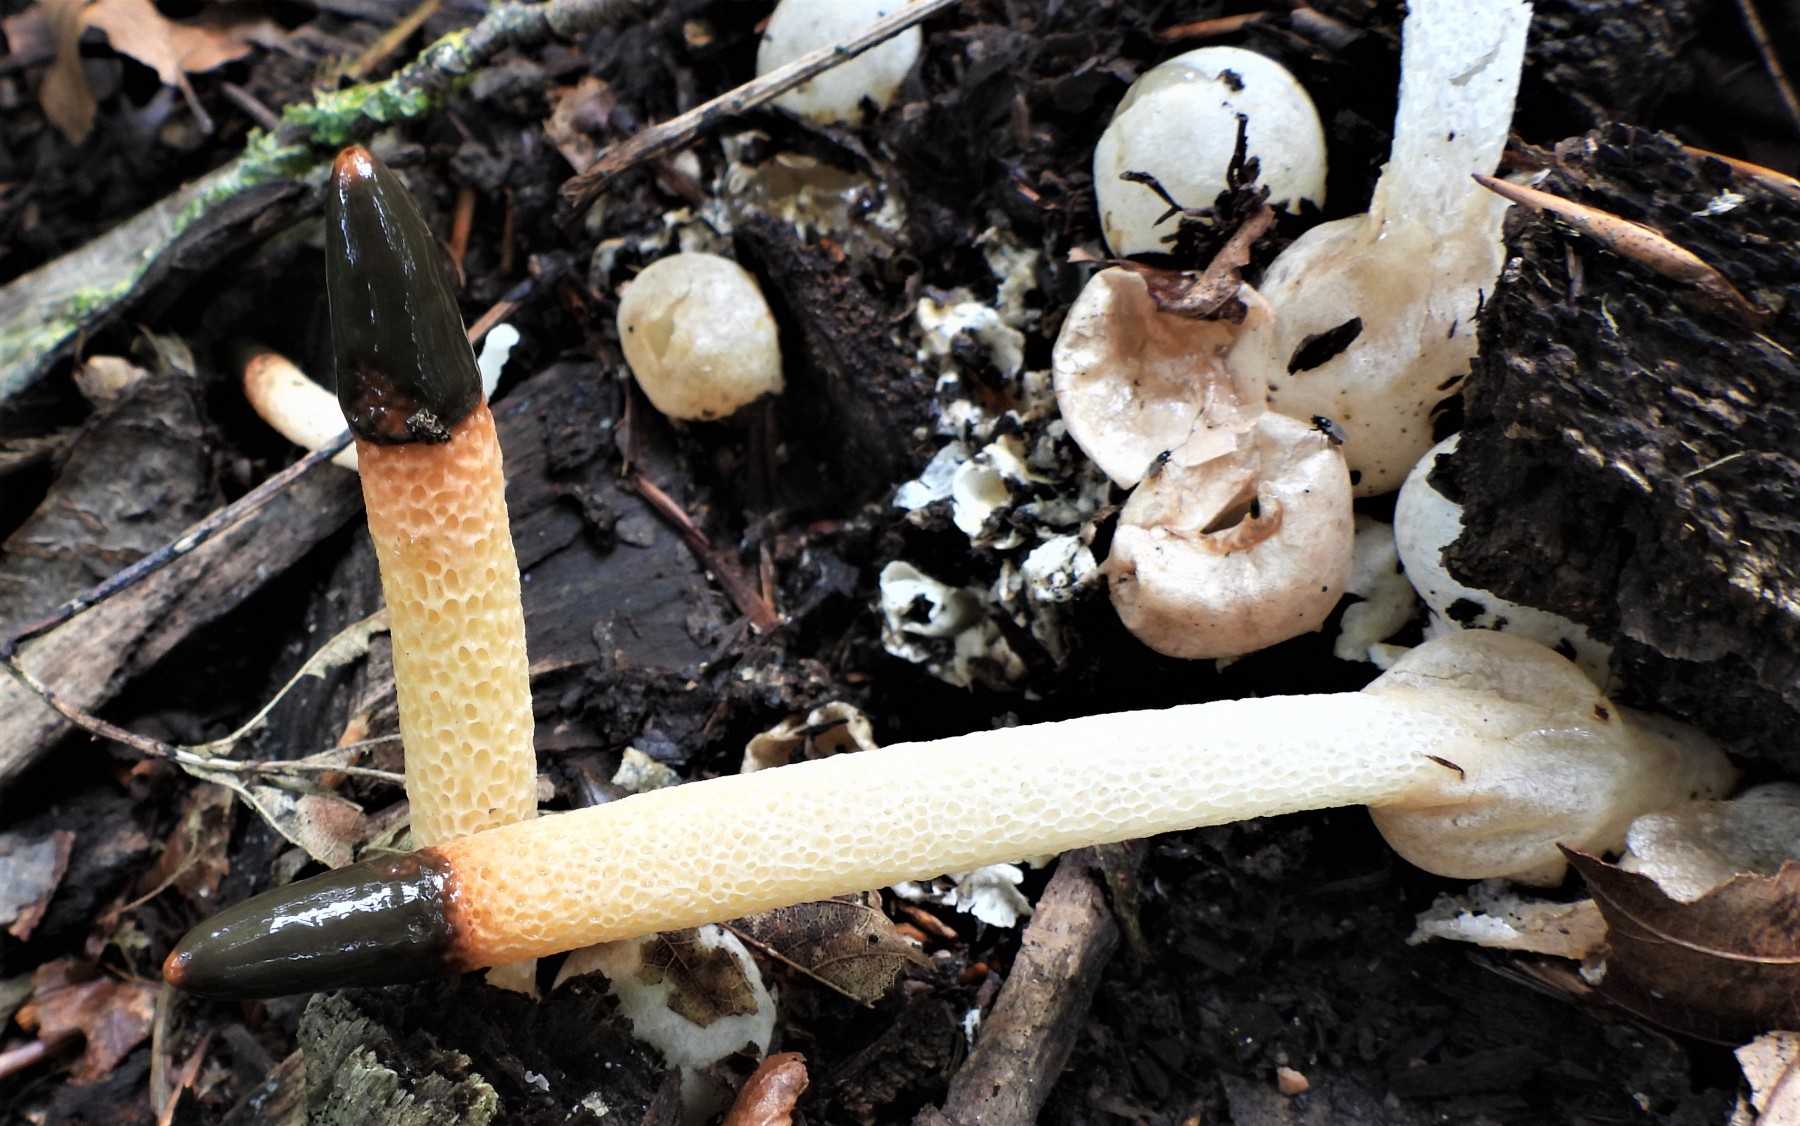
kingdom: Fungi
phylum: Basidiomycota
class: Agaricomycetes
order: Phallales
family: Phallaceae
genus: Mutinus
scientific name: Mutinus caninus
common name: hunde-stinksvamp
